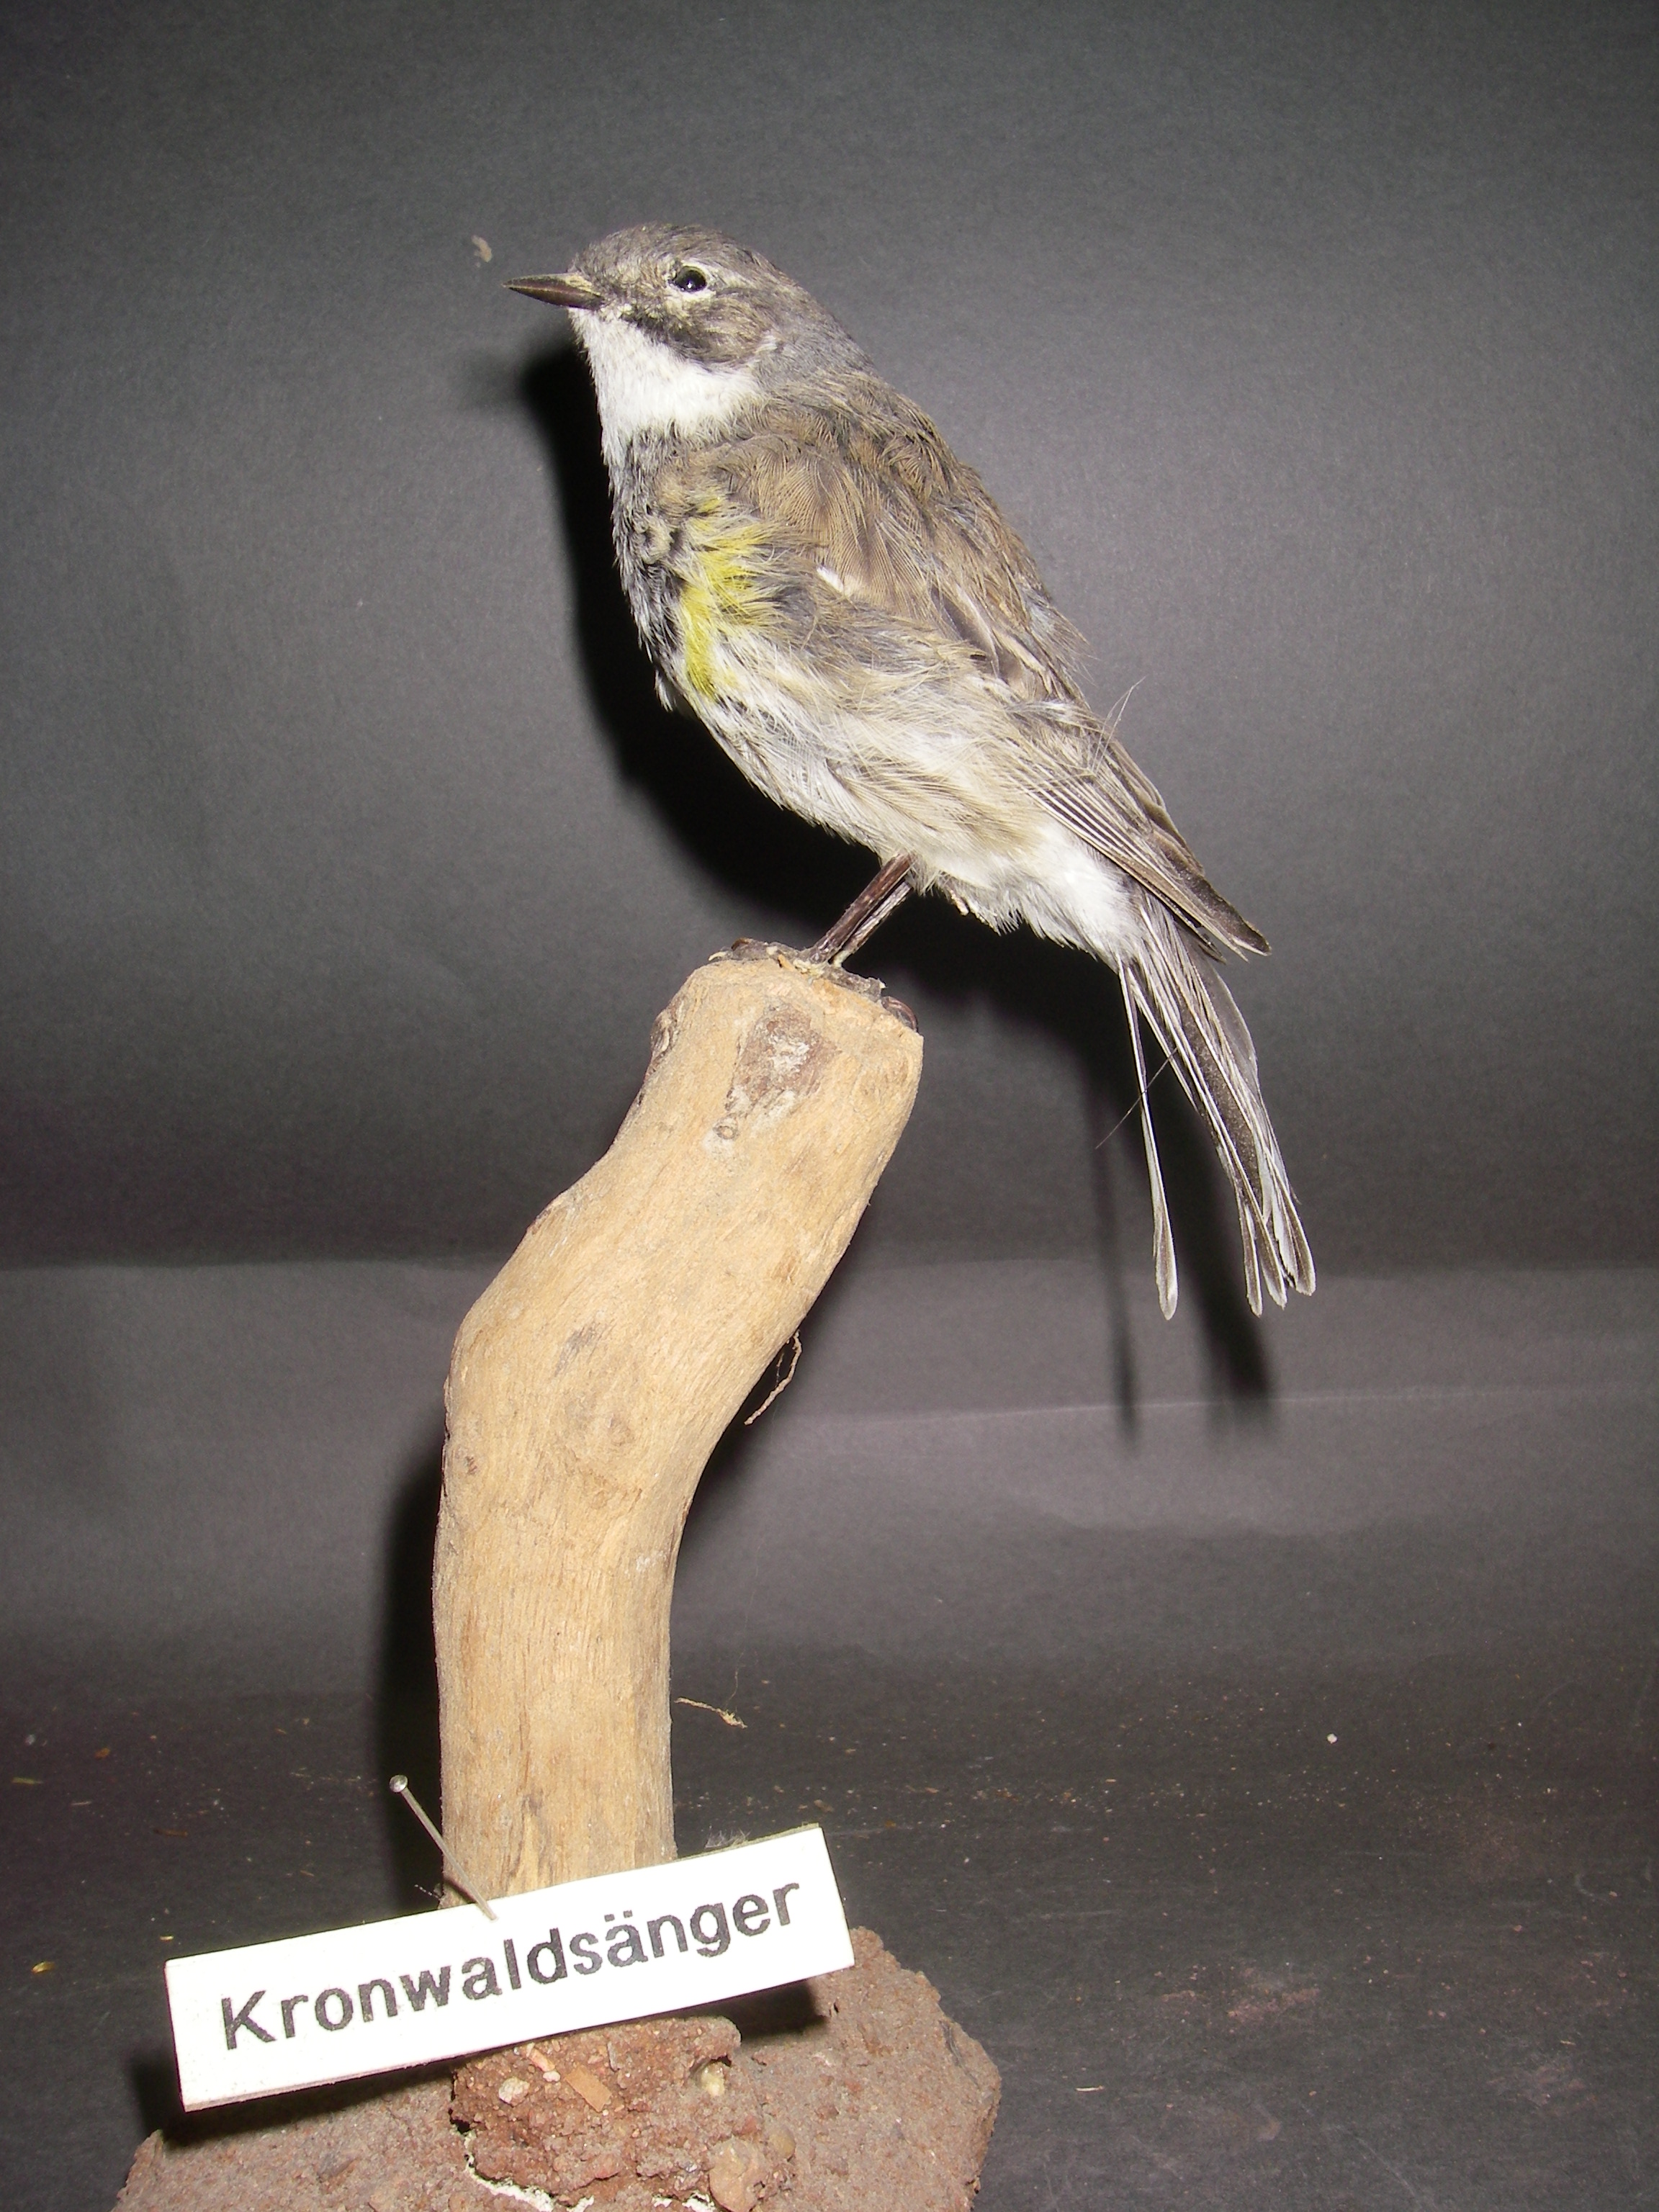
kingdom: Animalia
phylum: Chordata
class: Aves
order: Passeriformes
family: Parulidae
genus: Setophaga
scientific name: Setophaga coronata
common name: Myrtle warbler
